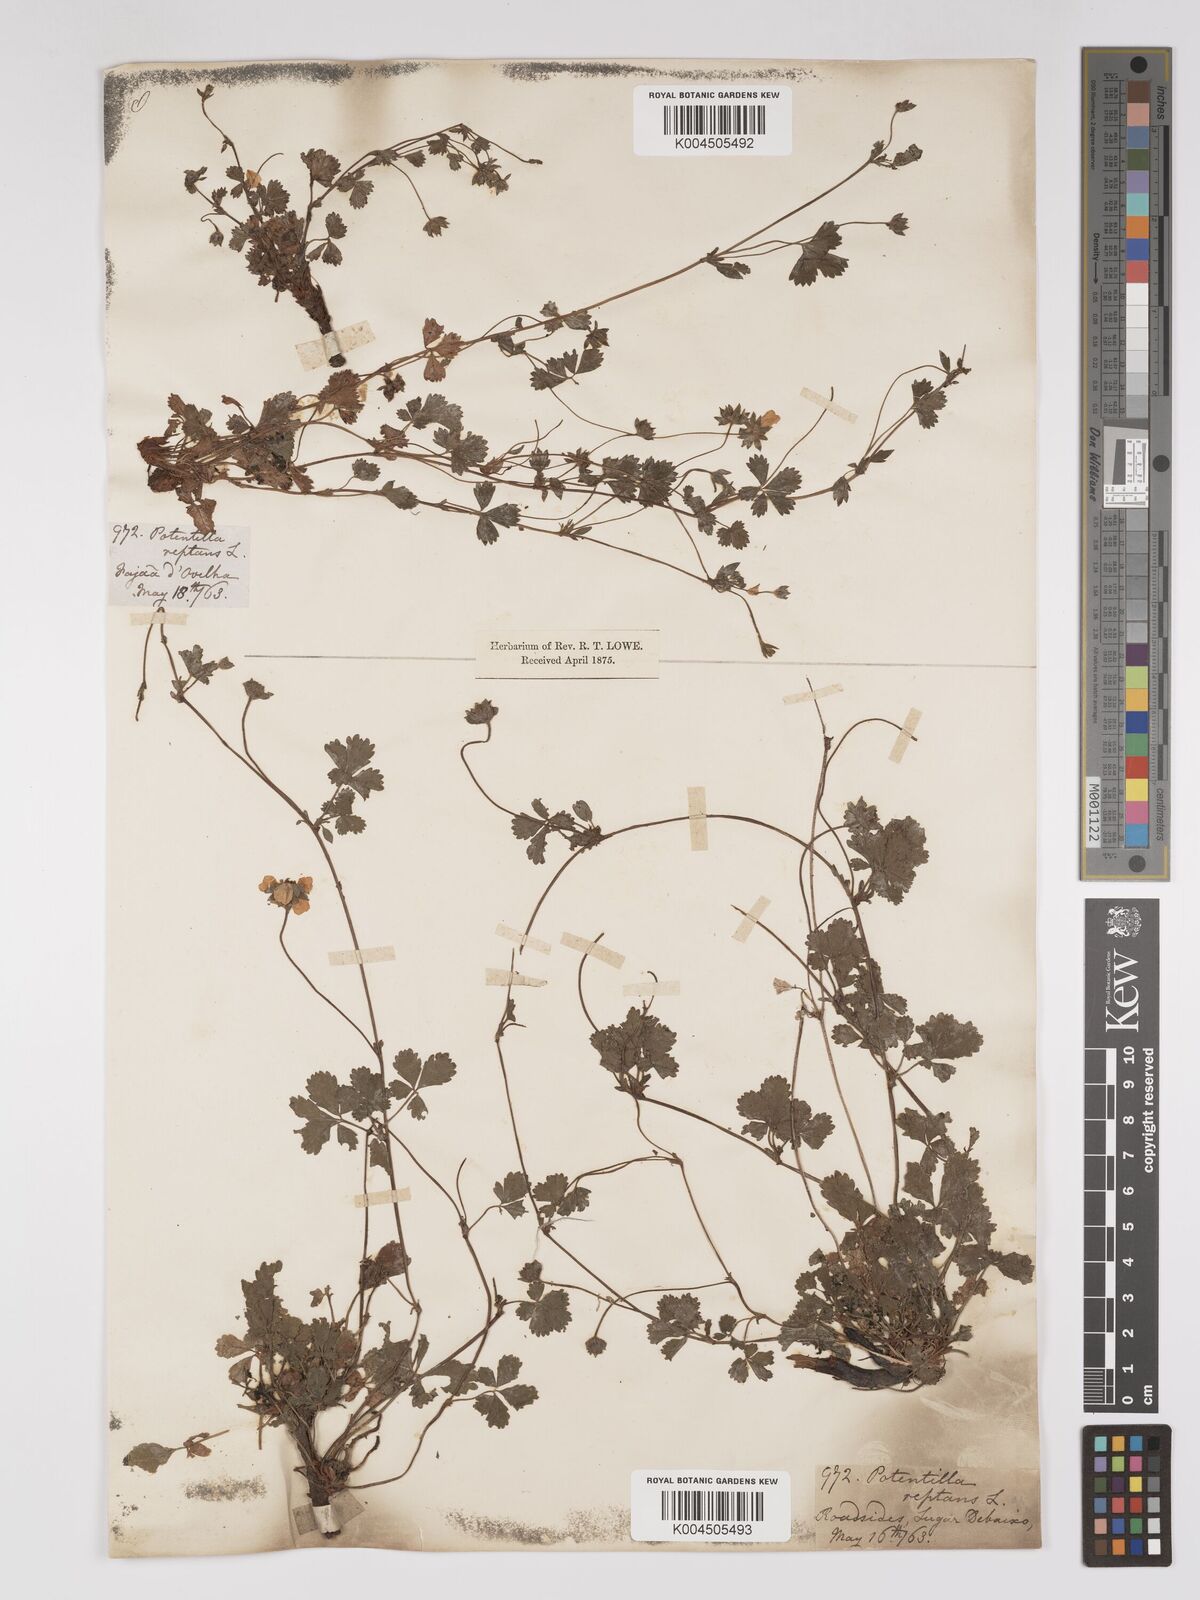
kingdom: Plantae
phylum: Tracheophyta
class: Magnoliopsida
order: Rosales
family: Rosaceae
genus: Potentilla
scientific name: Potentilla reptans
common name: Creeping cinquefoil
